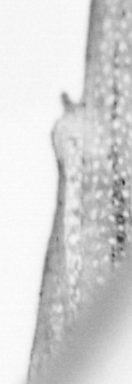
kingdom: Animalia
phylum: Chordata
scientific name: Chordata
